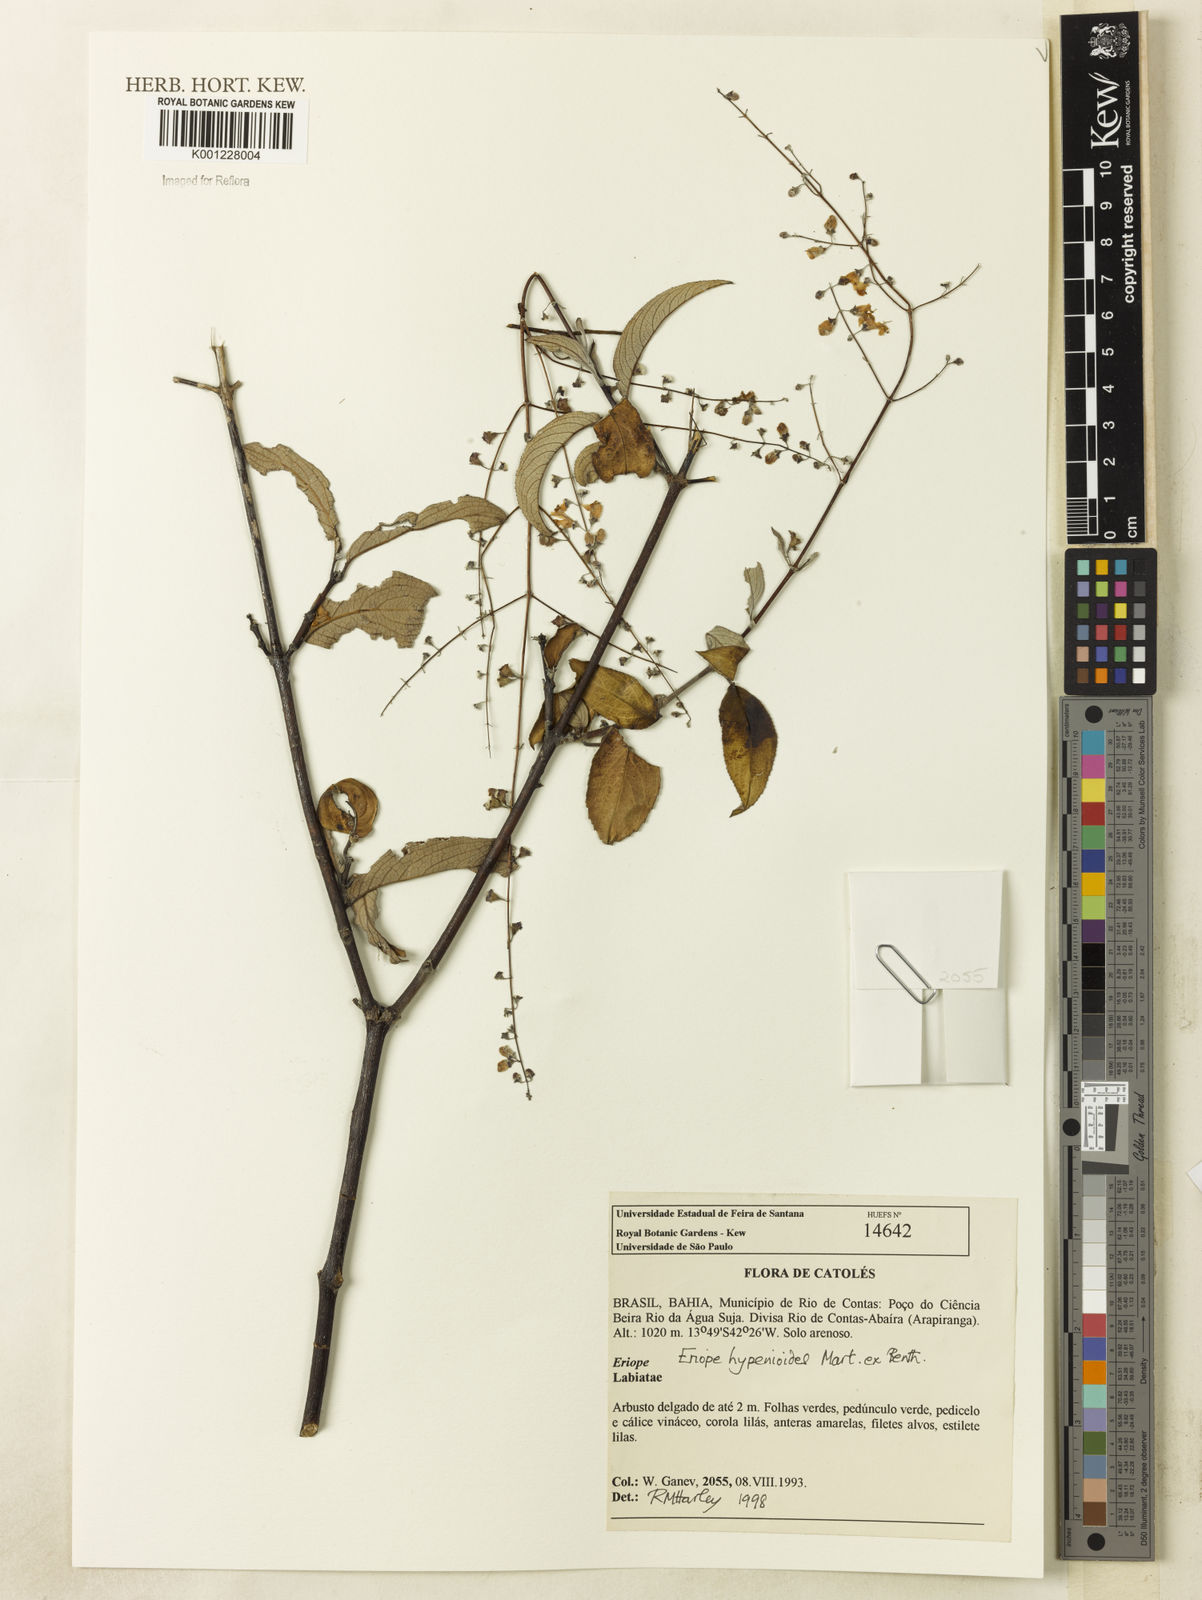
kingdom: Plantae
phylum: Tracheophyta
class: Magnoliopsida
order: Lamiales
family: Lamiaceae
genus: Eriope
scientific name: Eriope hypenioides
